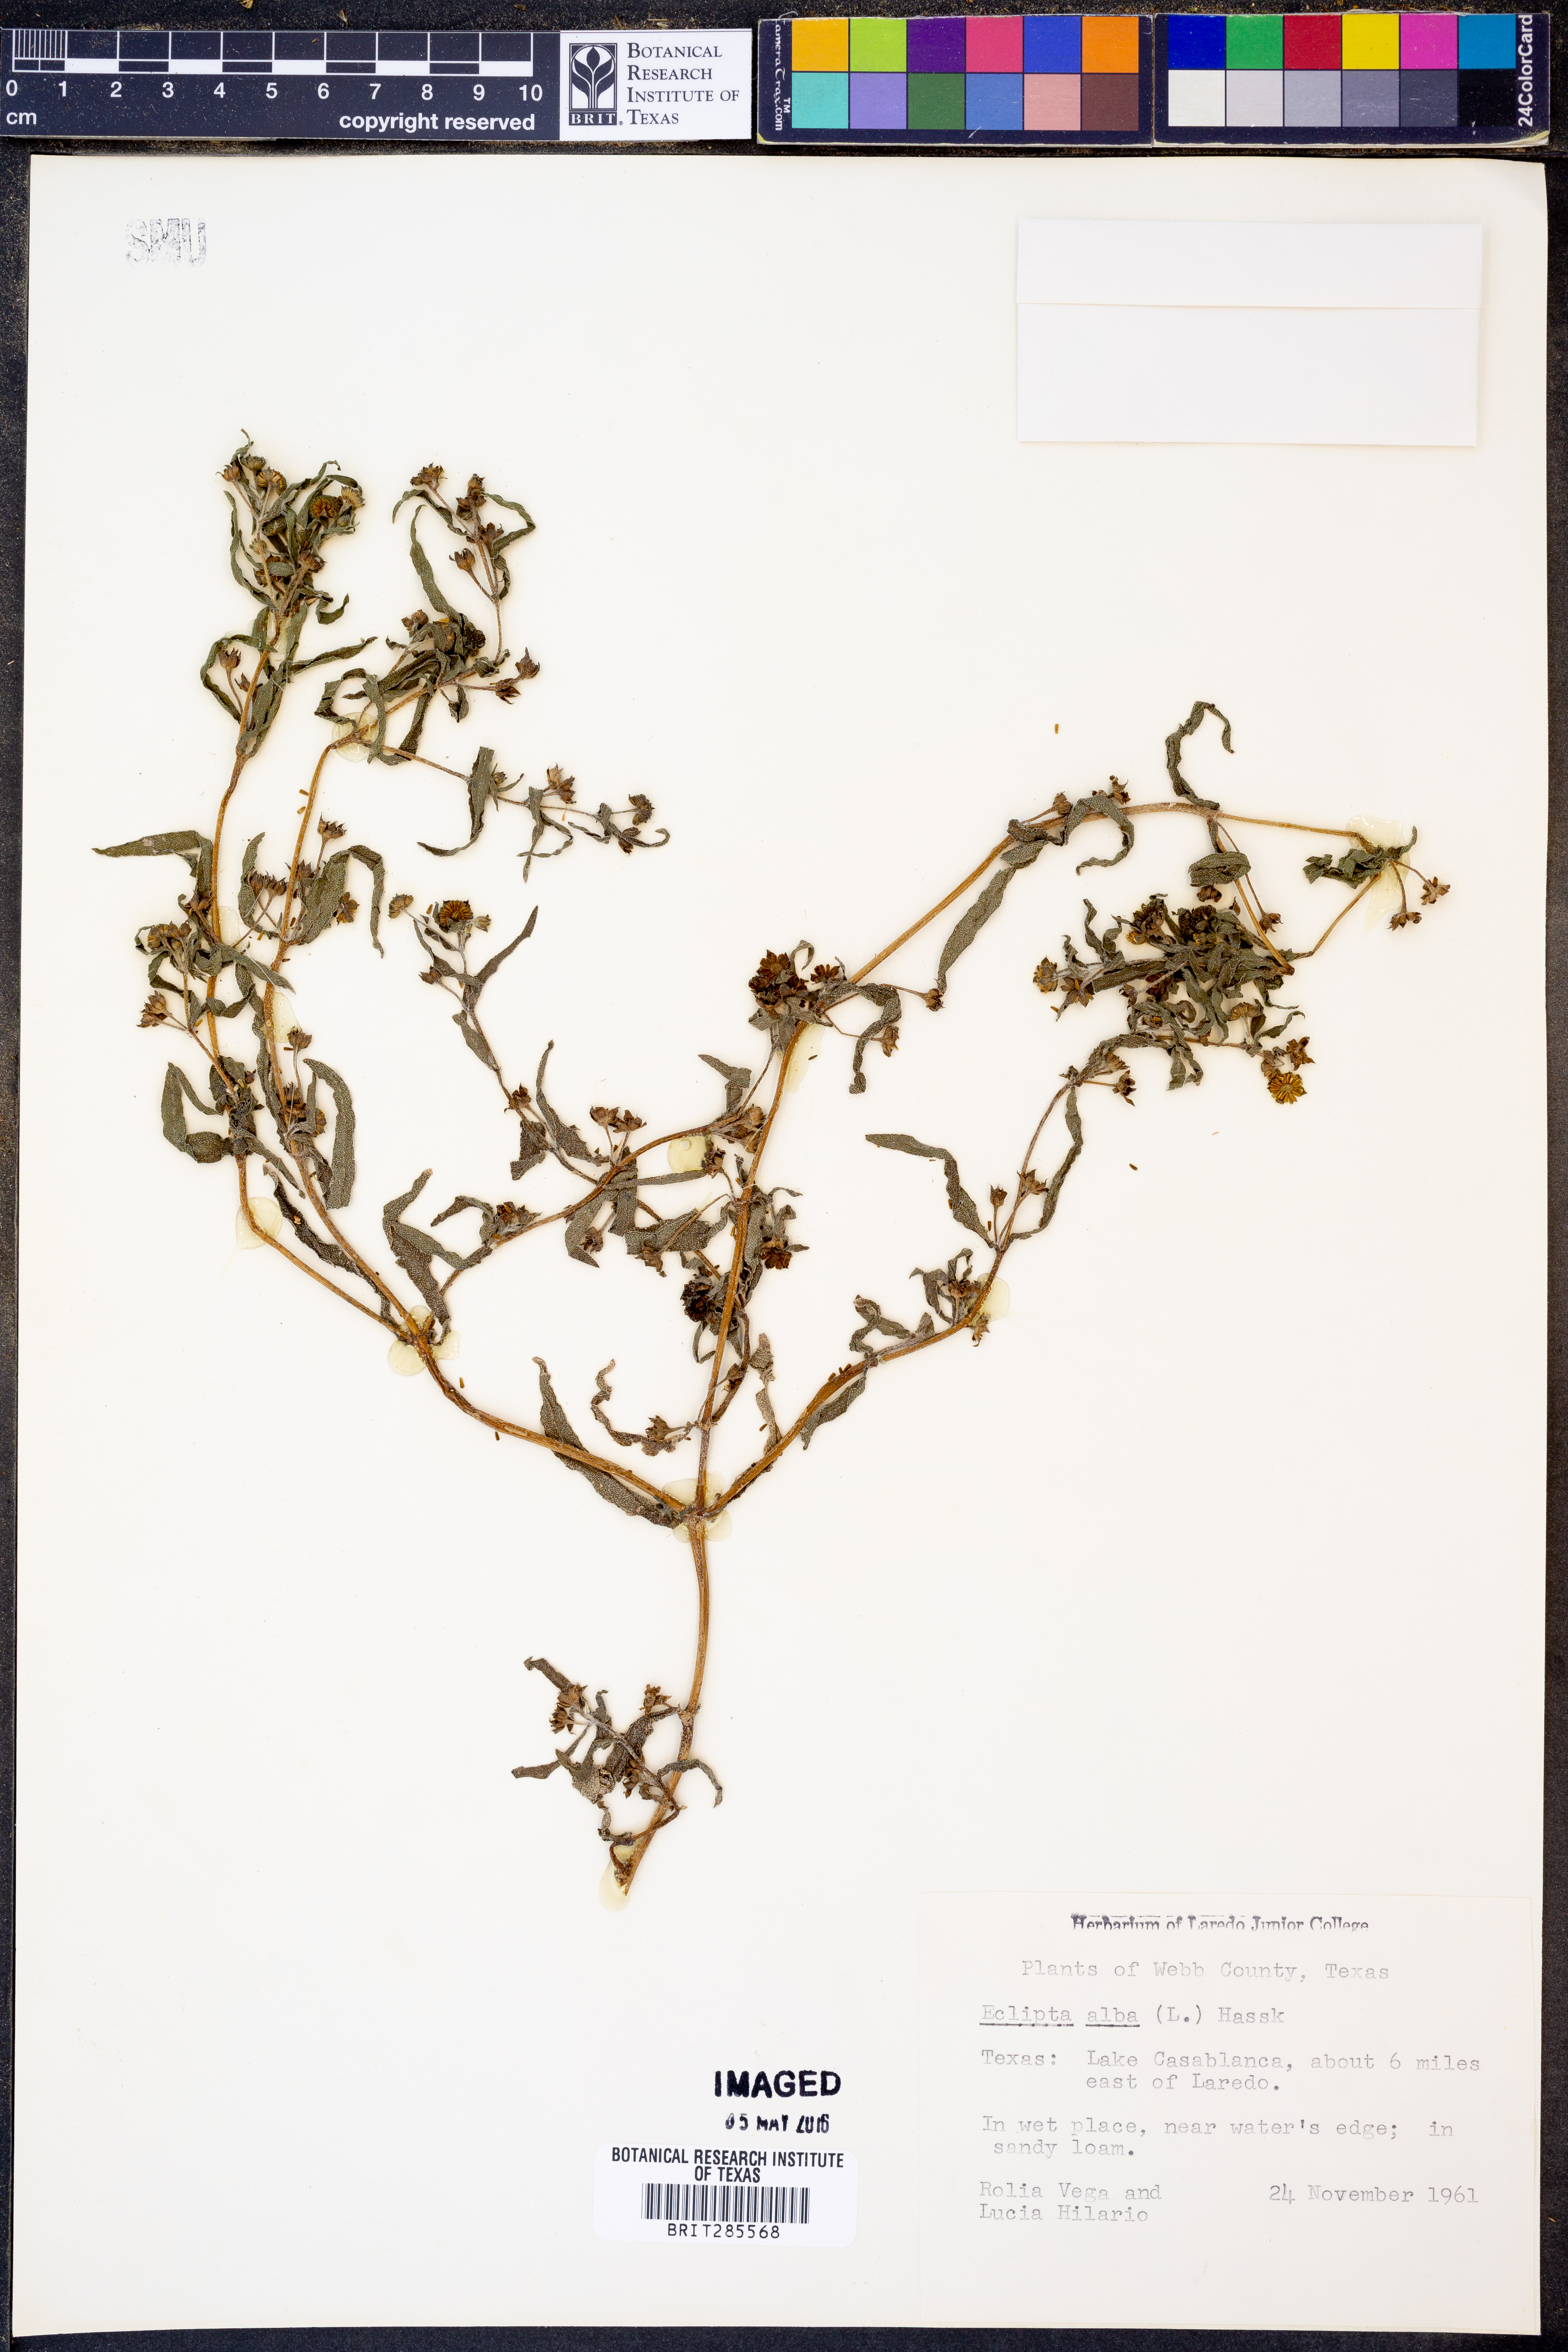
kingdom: Plantae
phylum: Tracheophyta
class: Magnoliopsida
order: Asterales
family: Asteraceae
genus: Eclipta
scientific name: Eclipta alba
